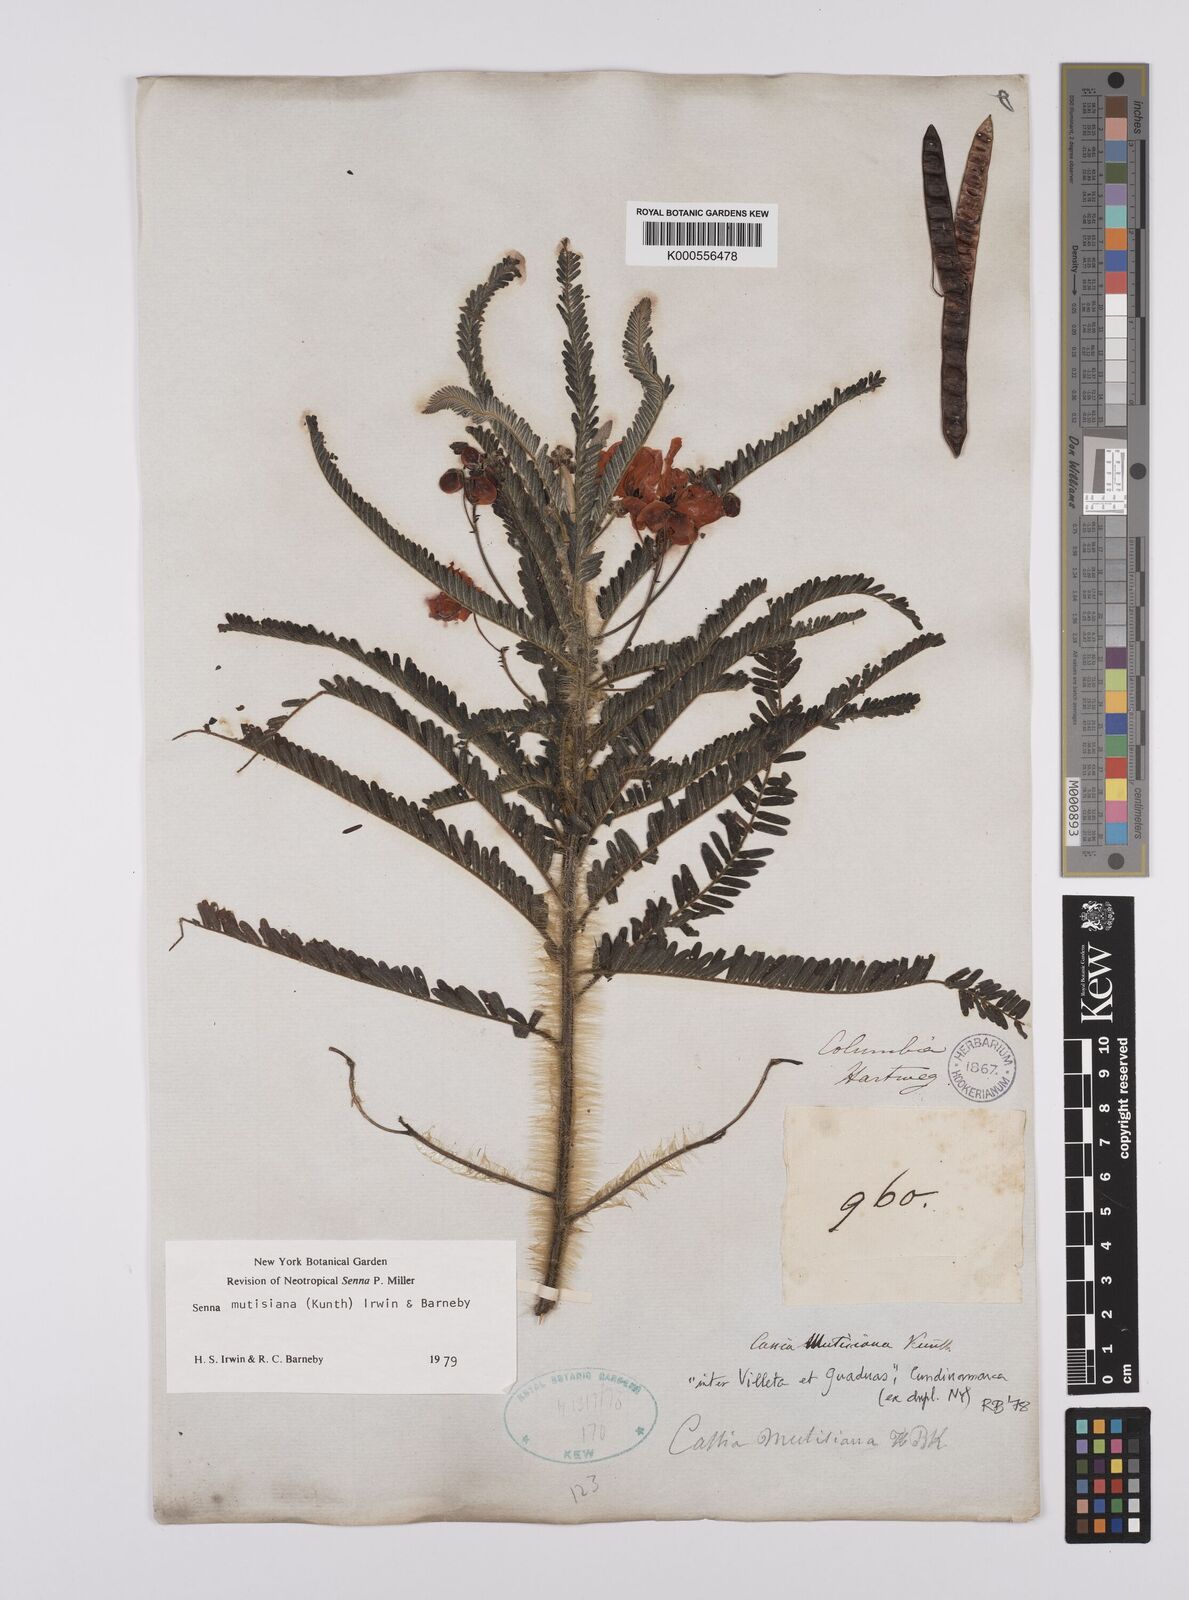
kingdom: Plantae
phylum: Tracheophyta
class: Magnoliopsida
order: Fabales
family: Fabaceae
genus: Senna
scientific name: Senna mutisiana
